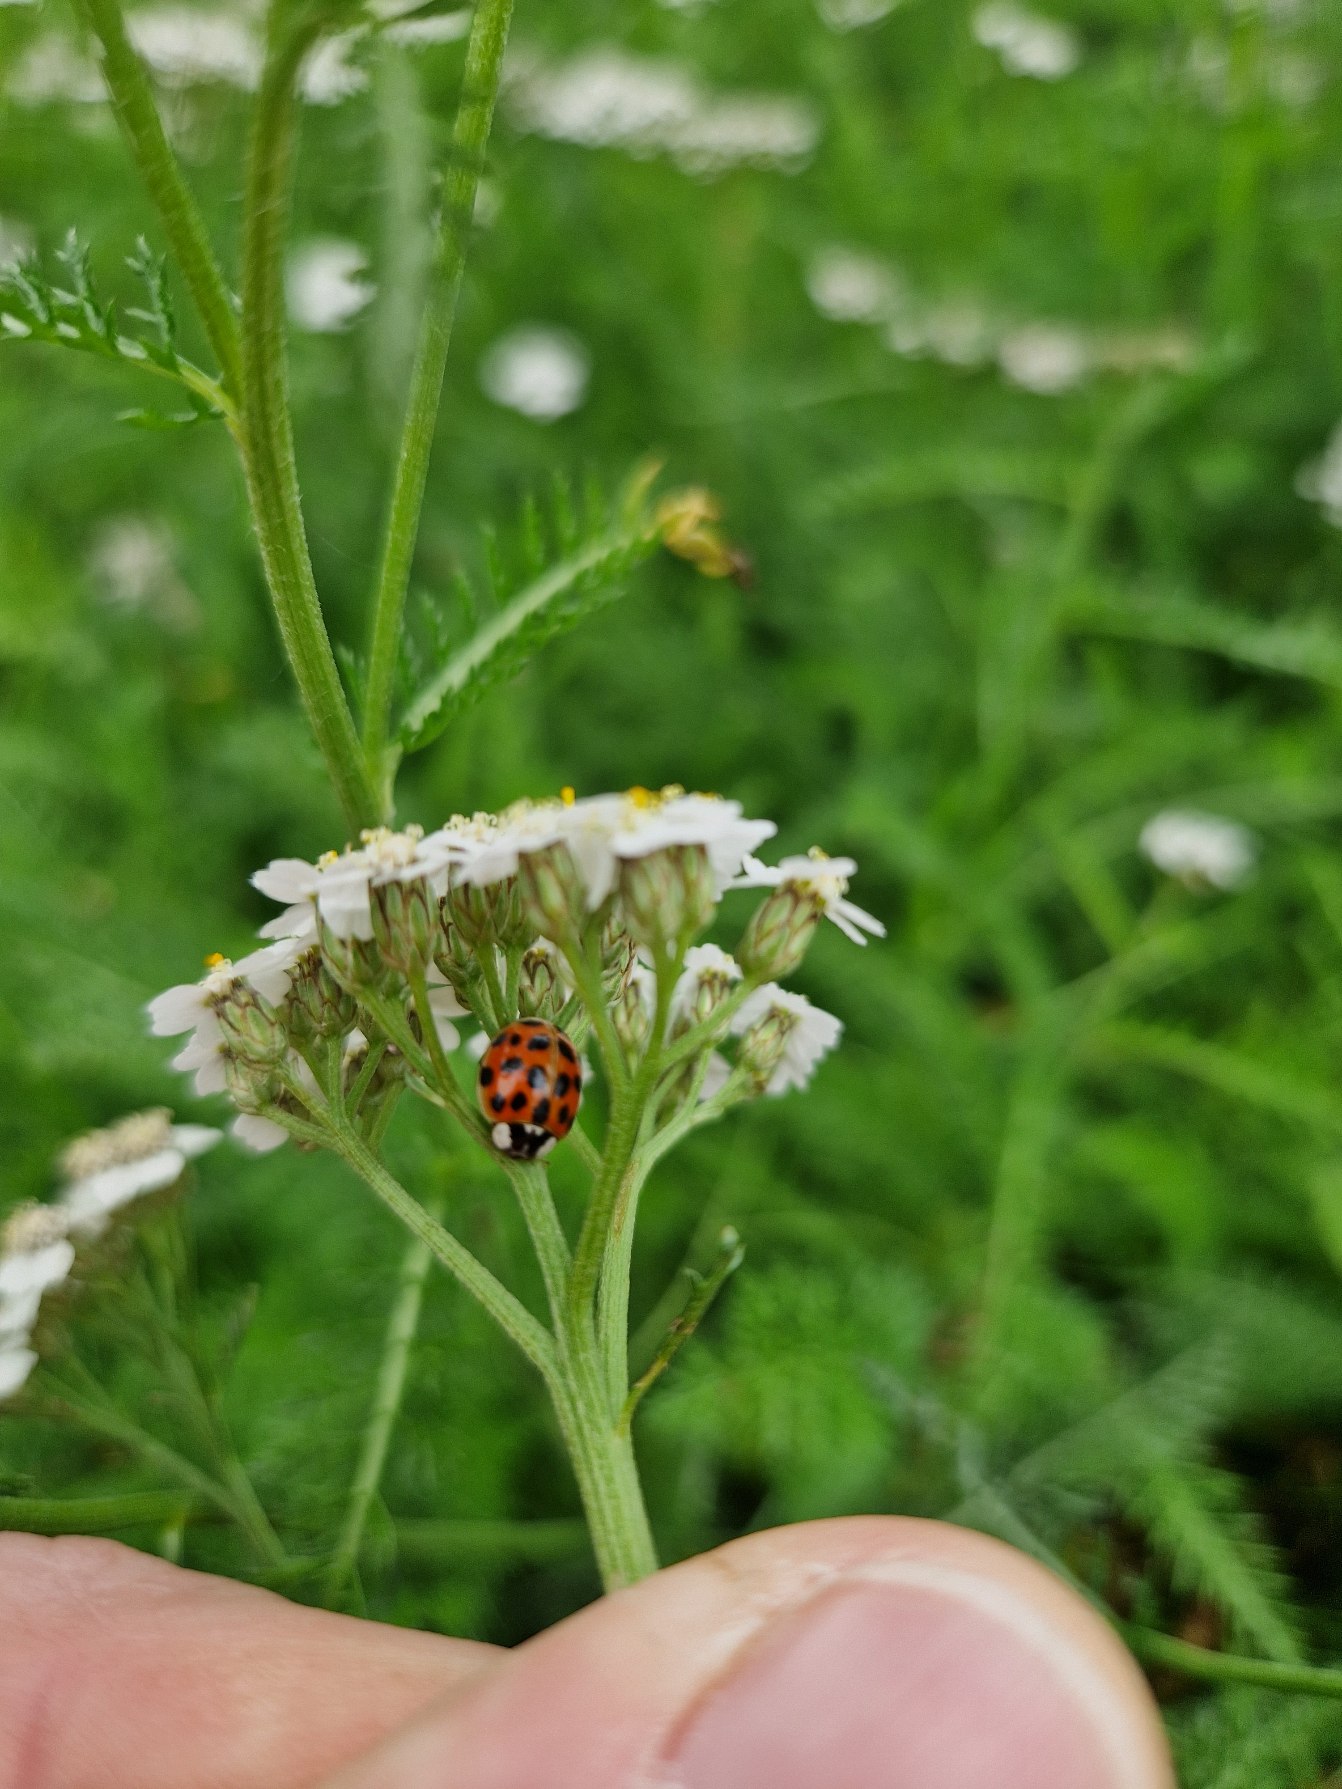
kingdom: Animalia
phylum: Arthropoda
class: Insecta
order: Coleoptera
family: Coccinellidae
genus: Harmonia
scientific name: Harmonia axyridis
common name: Harlekinmariehøne
